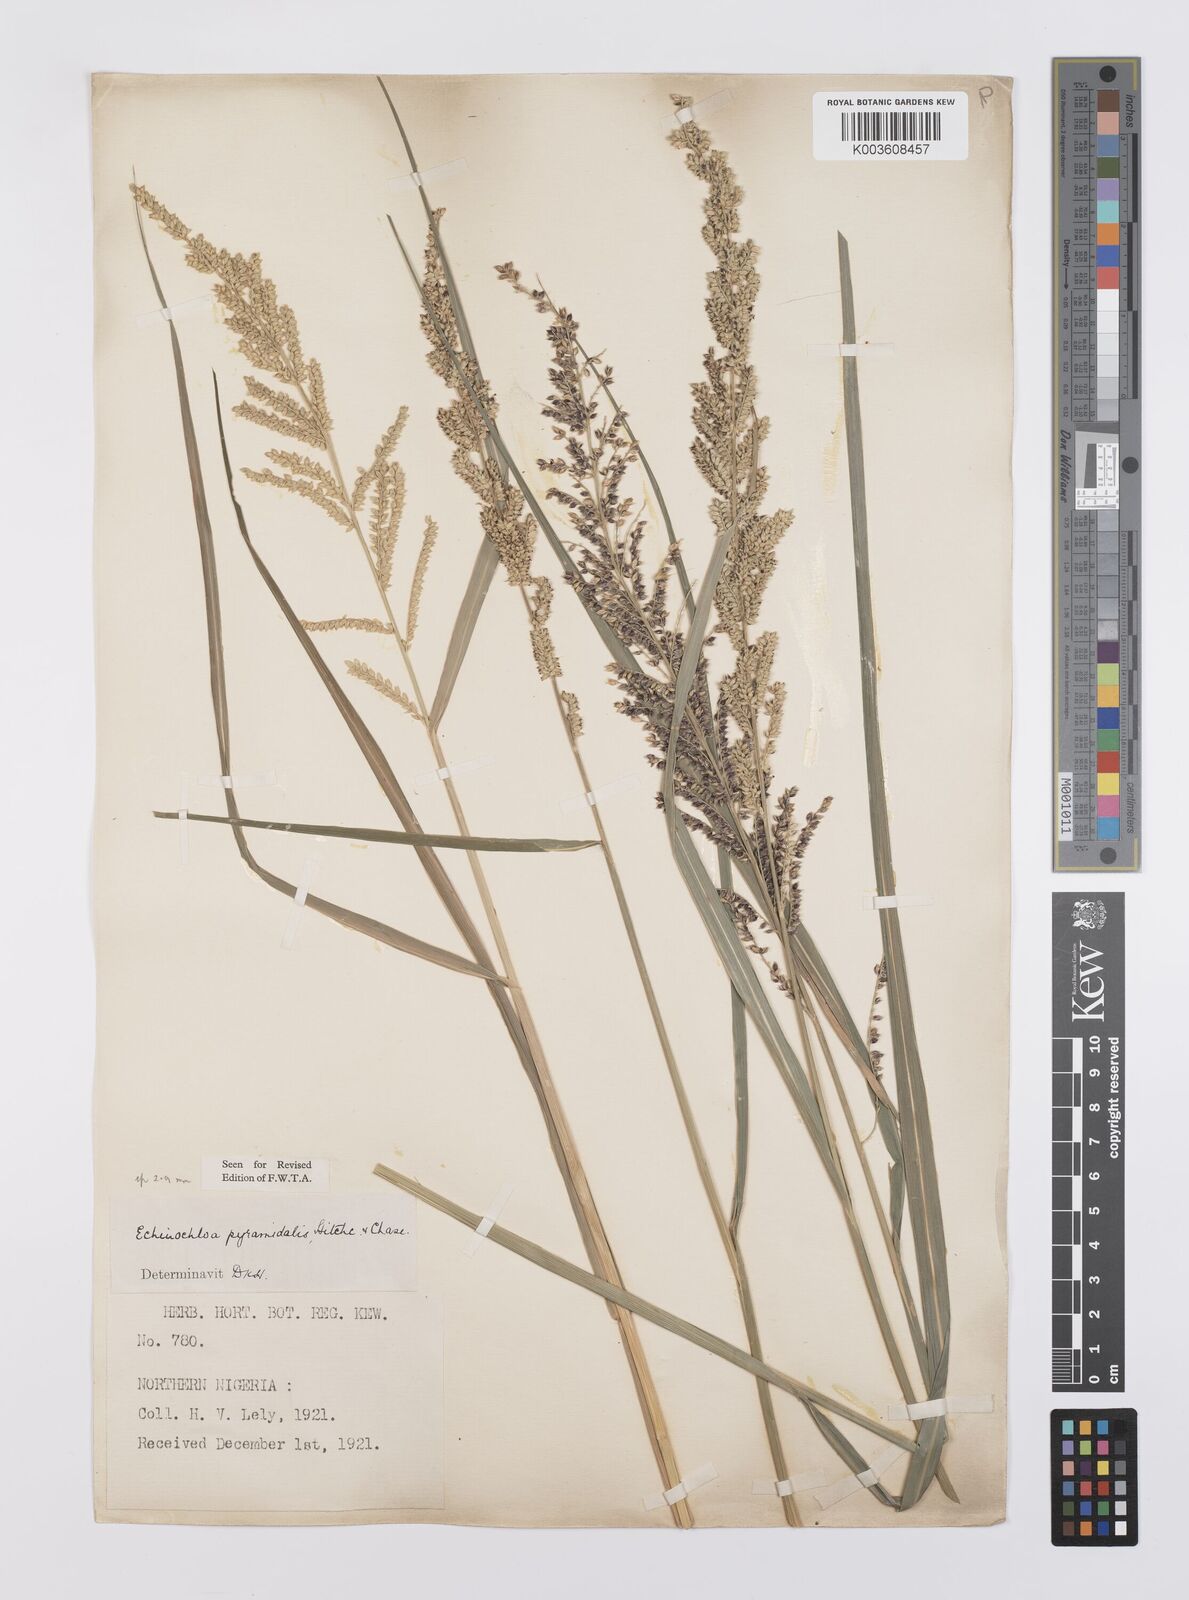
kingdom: Plantae
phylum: Tracheophyta
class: Liliopsida
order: Poales
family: Poaceae
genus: Echinochloa
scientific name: Echinochloa pyramidalis
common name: Antelope grass
